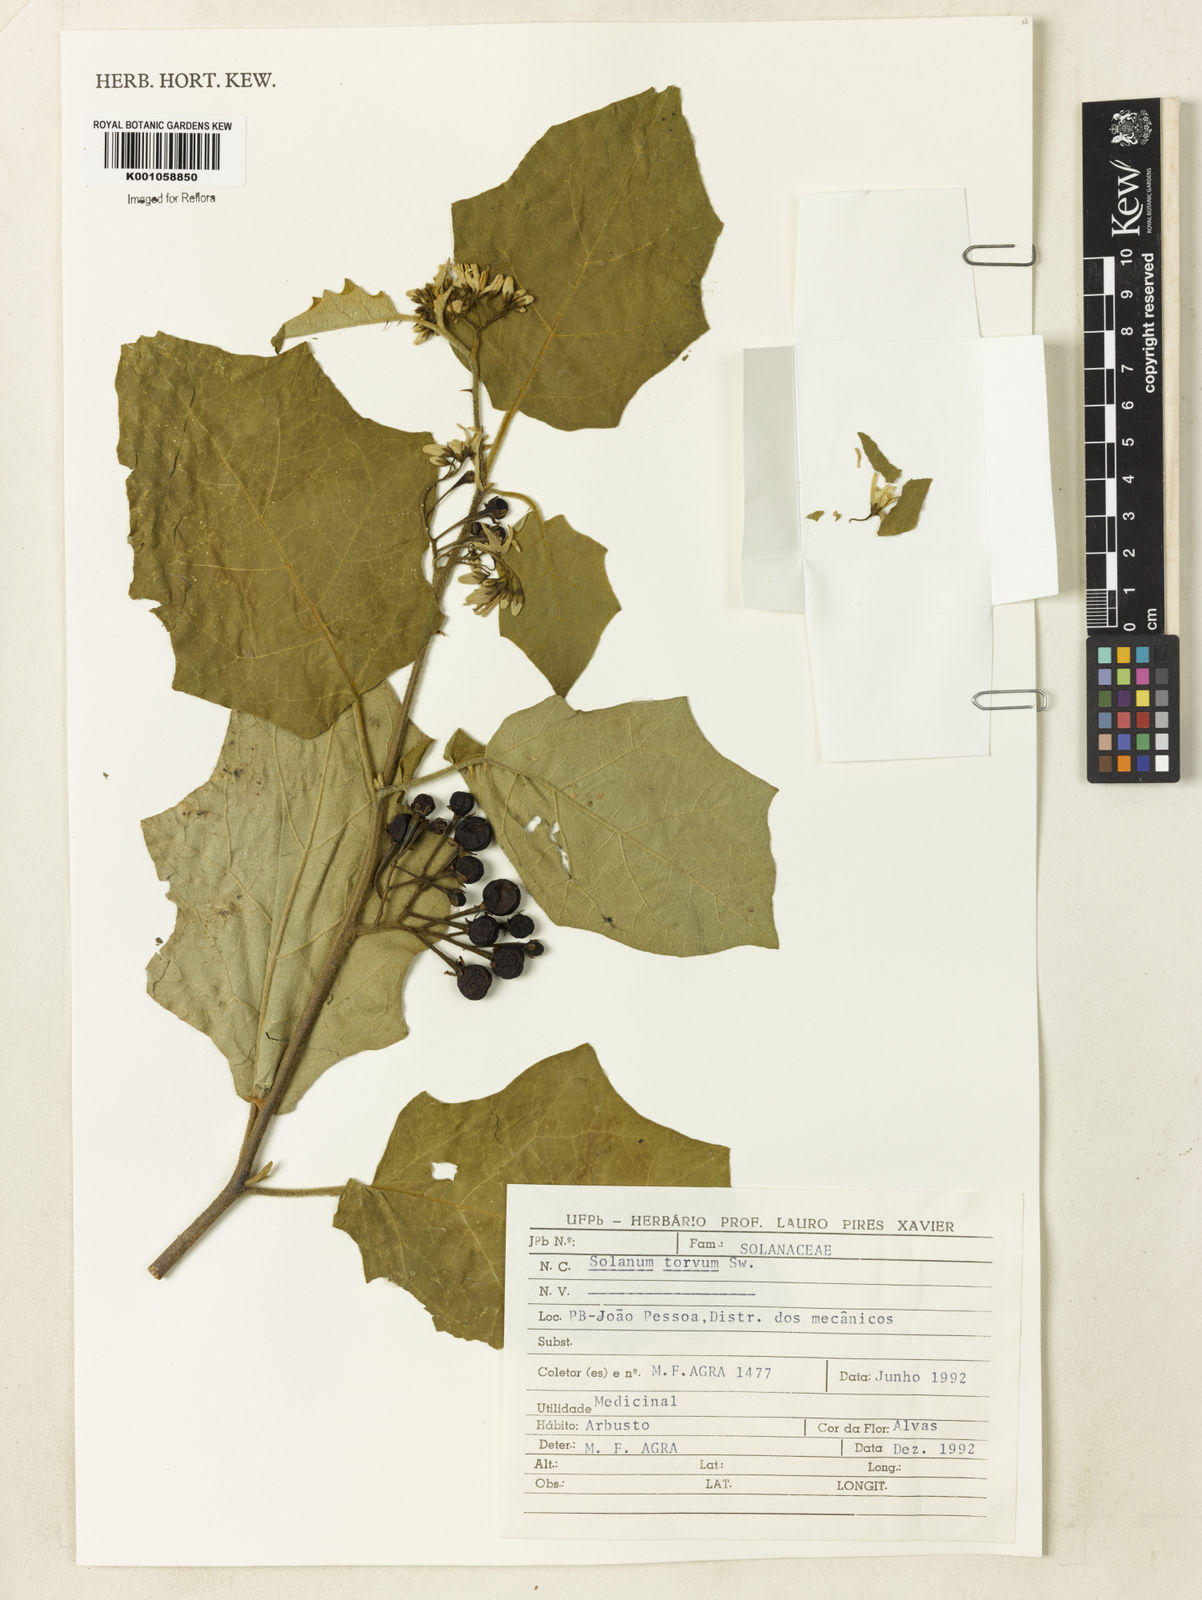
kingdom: Plantae
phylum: Tracheophyta
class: Magnoliopsida
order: Solanales
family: Solanaceae
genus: Solanum
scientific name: Solanum torvum
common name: Turkey berry
